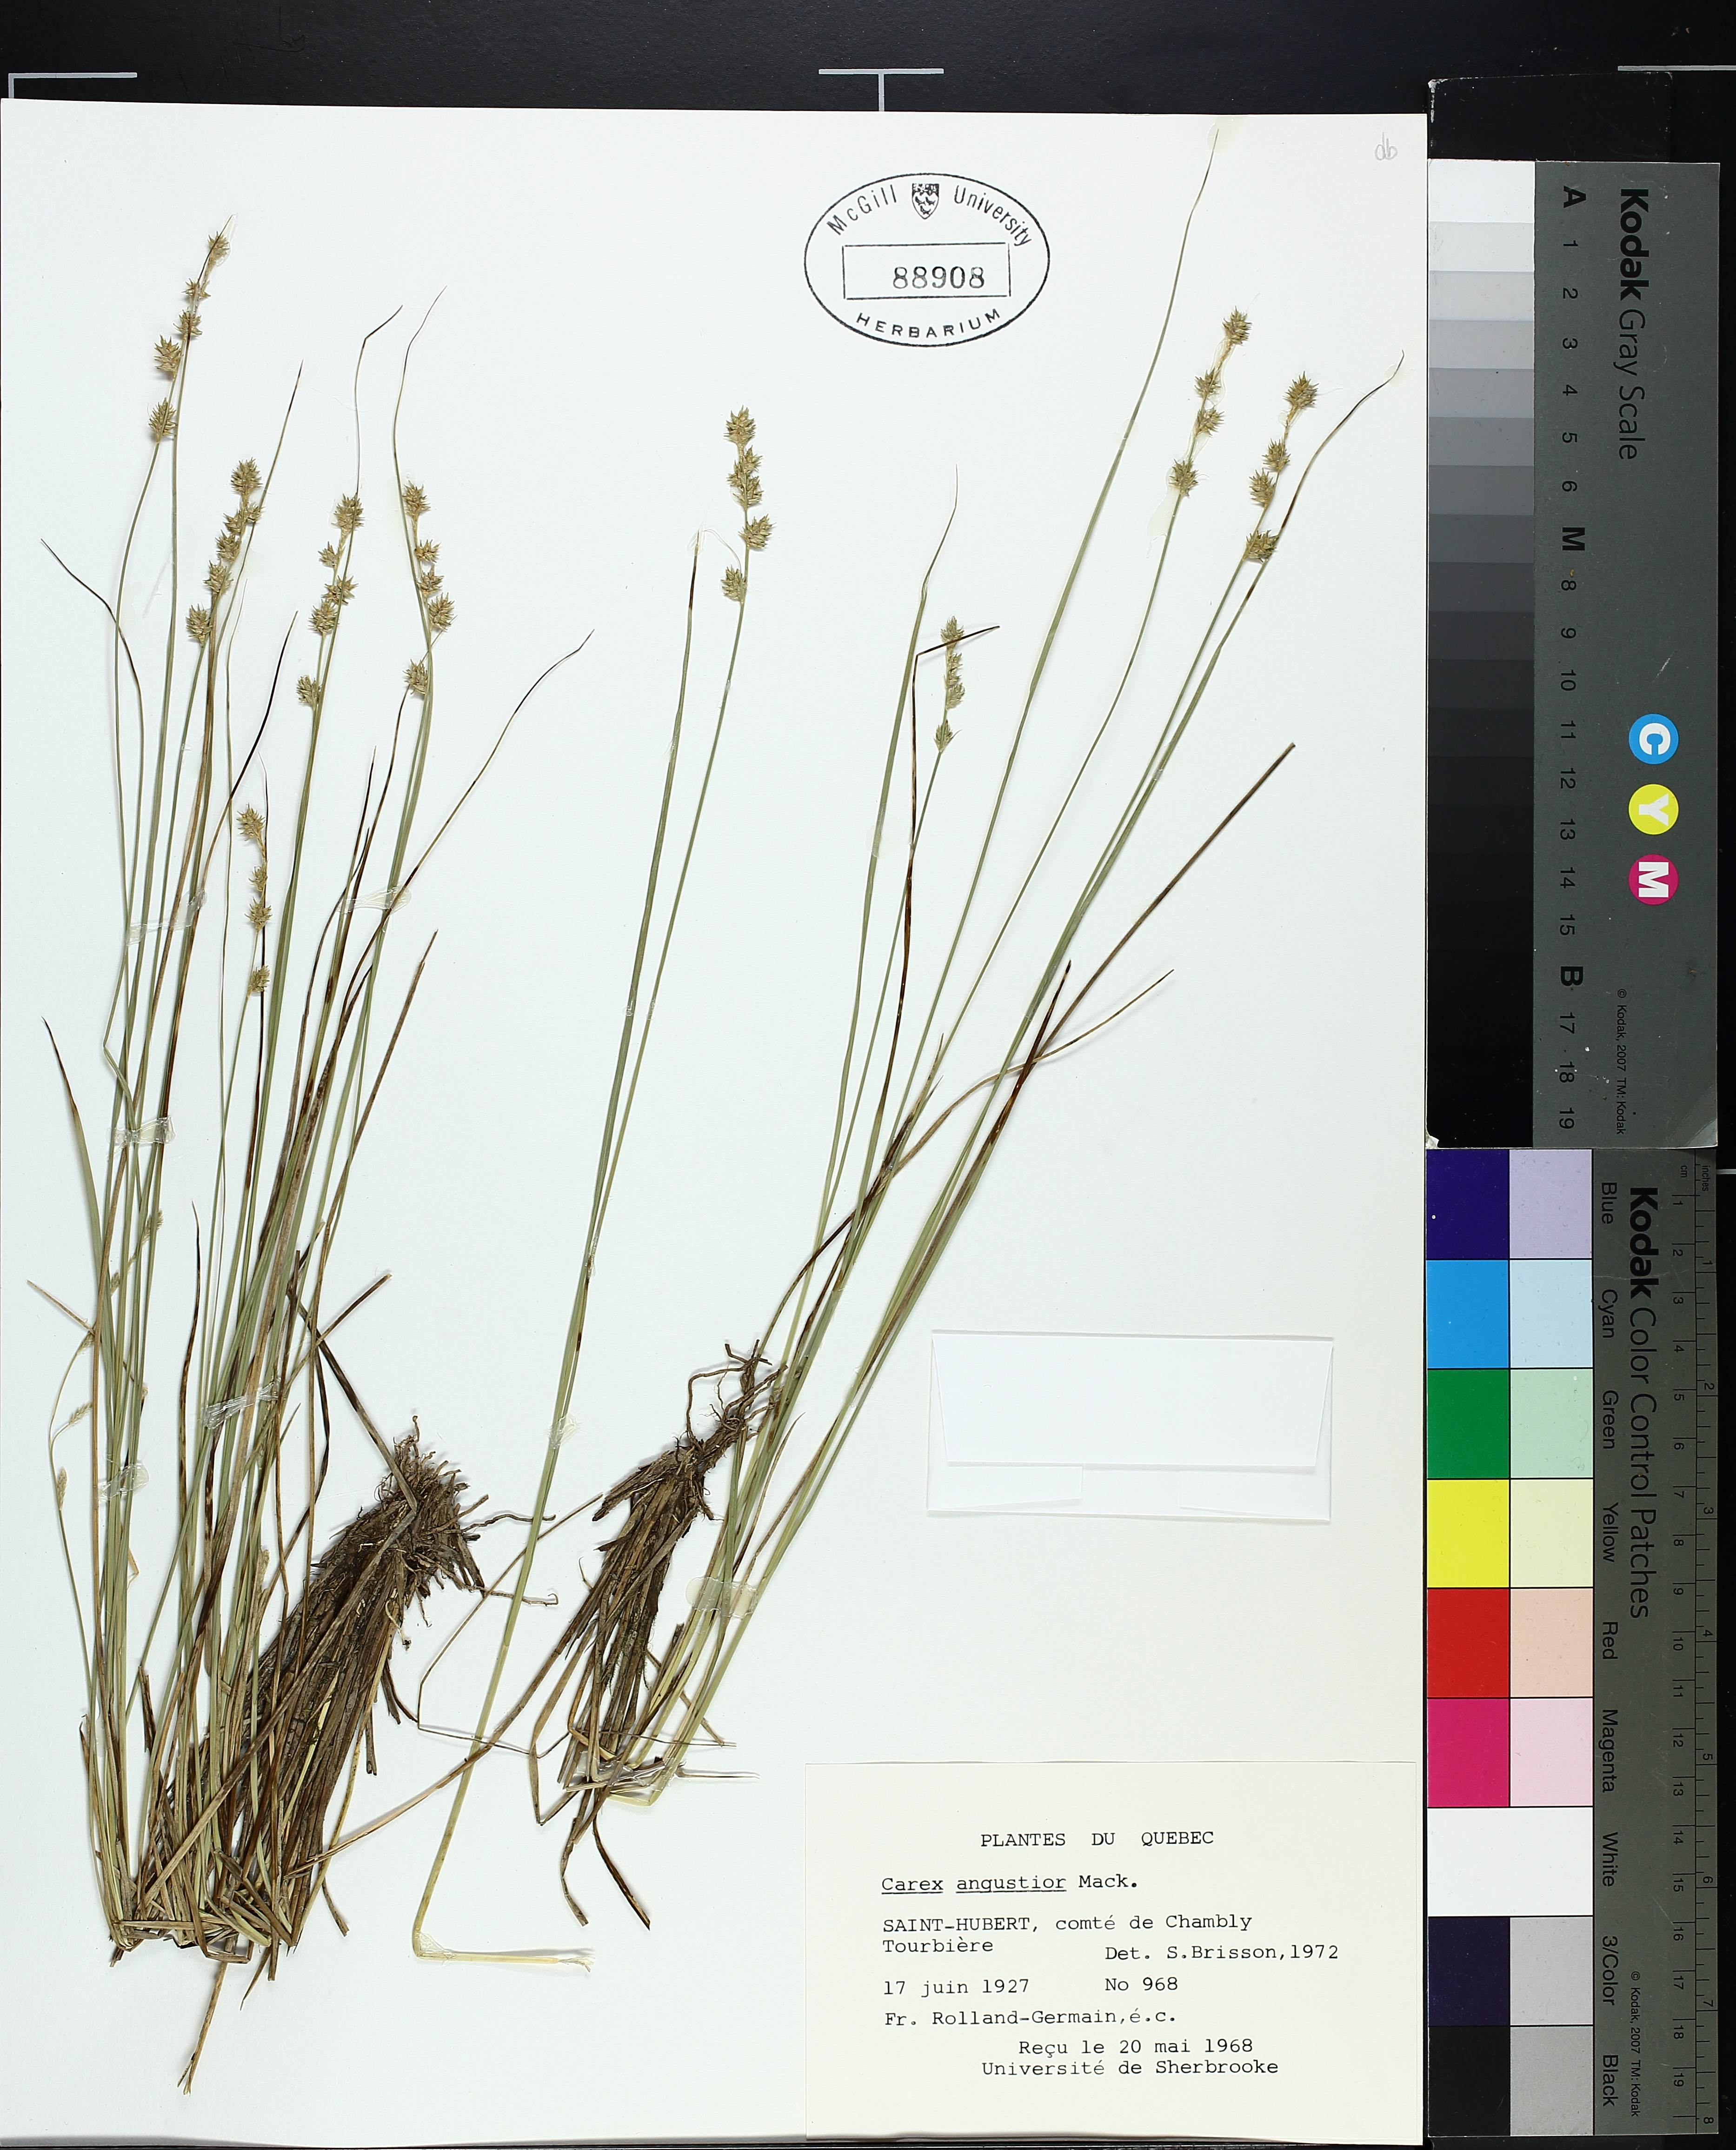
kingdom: Plantae
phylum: Tracheophyta
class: Liliopsida
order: Poales
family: Cyperaceae
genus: Carex
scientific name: Carex echinata
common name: Star sedge
